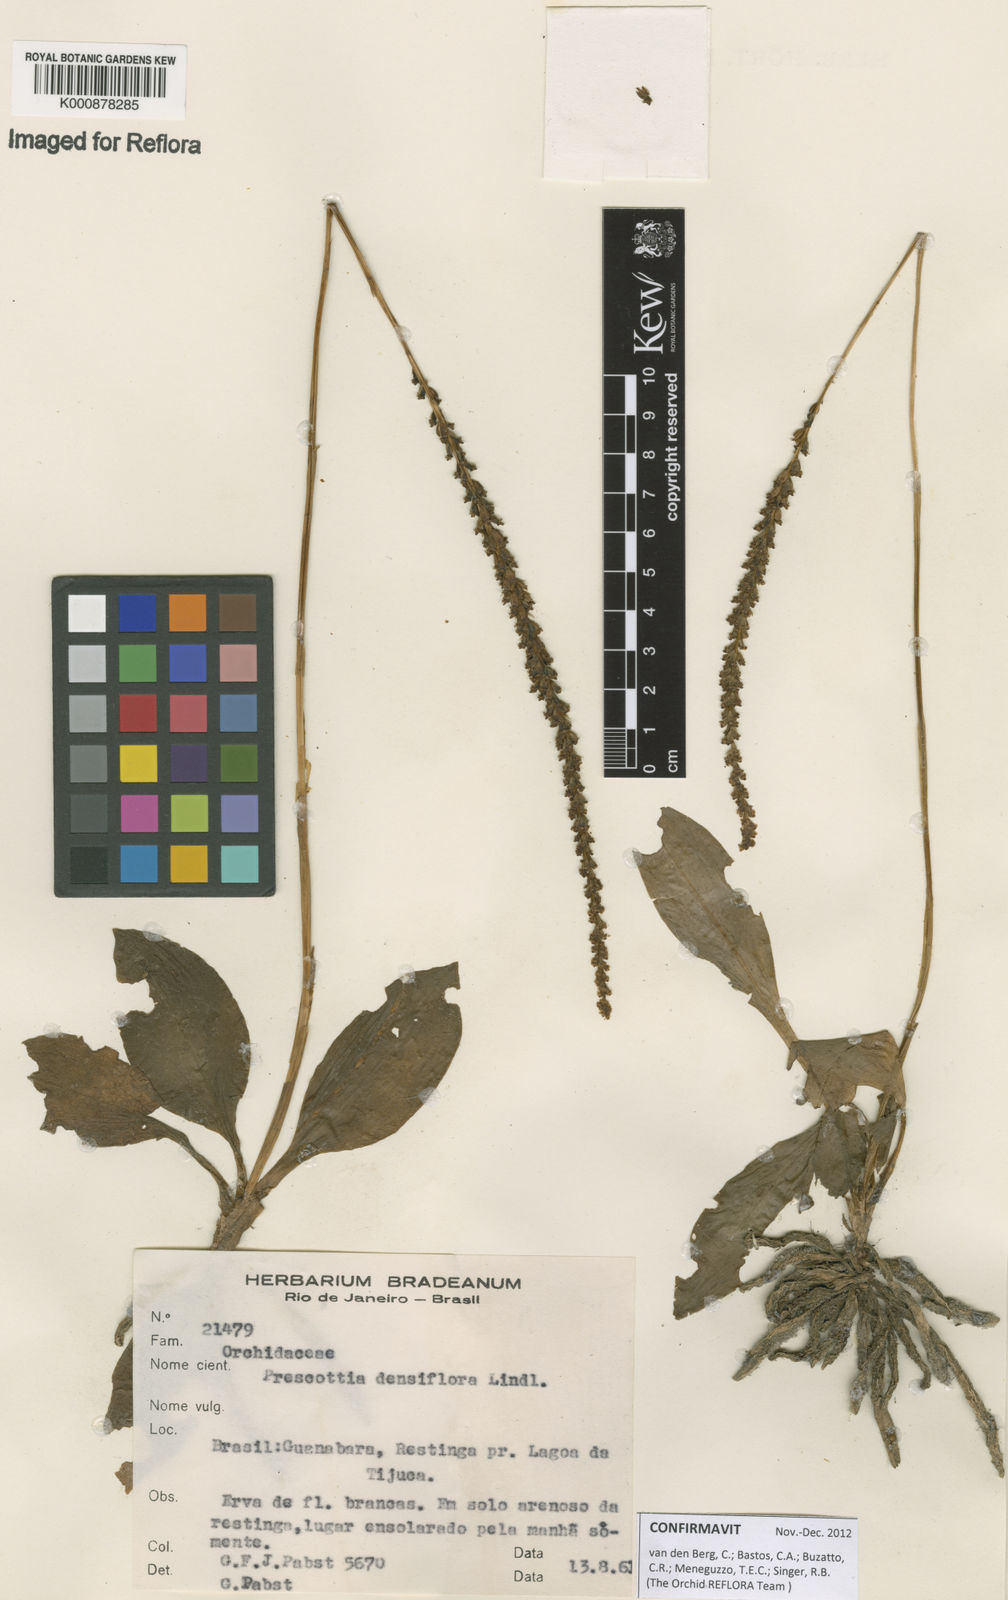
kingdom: Plantae
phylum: Tracheophyta
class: Liliopsida
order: Asparagales
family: Orchidaceae
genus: Prescottia
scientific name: Prescottia densiflora
